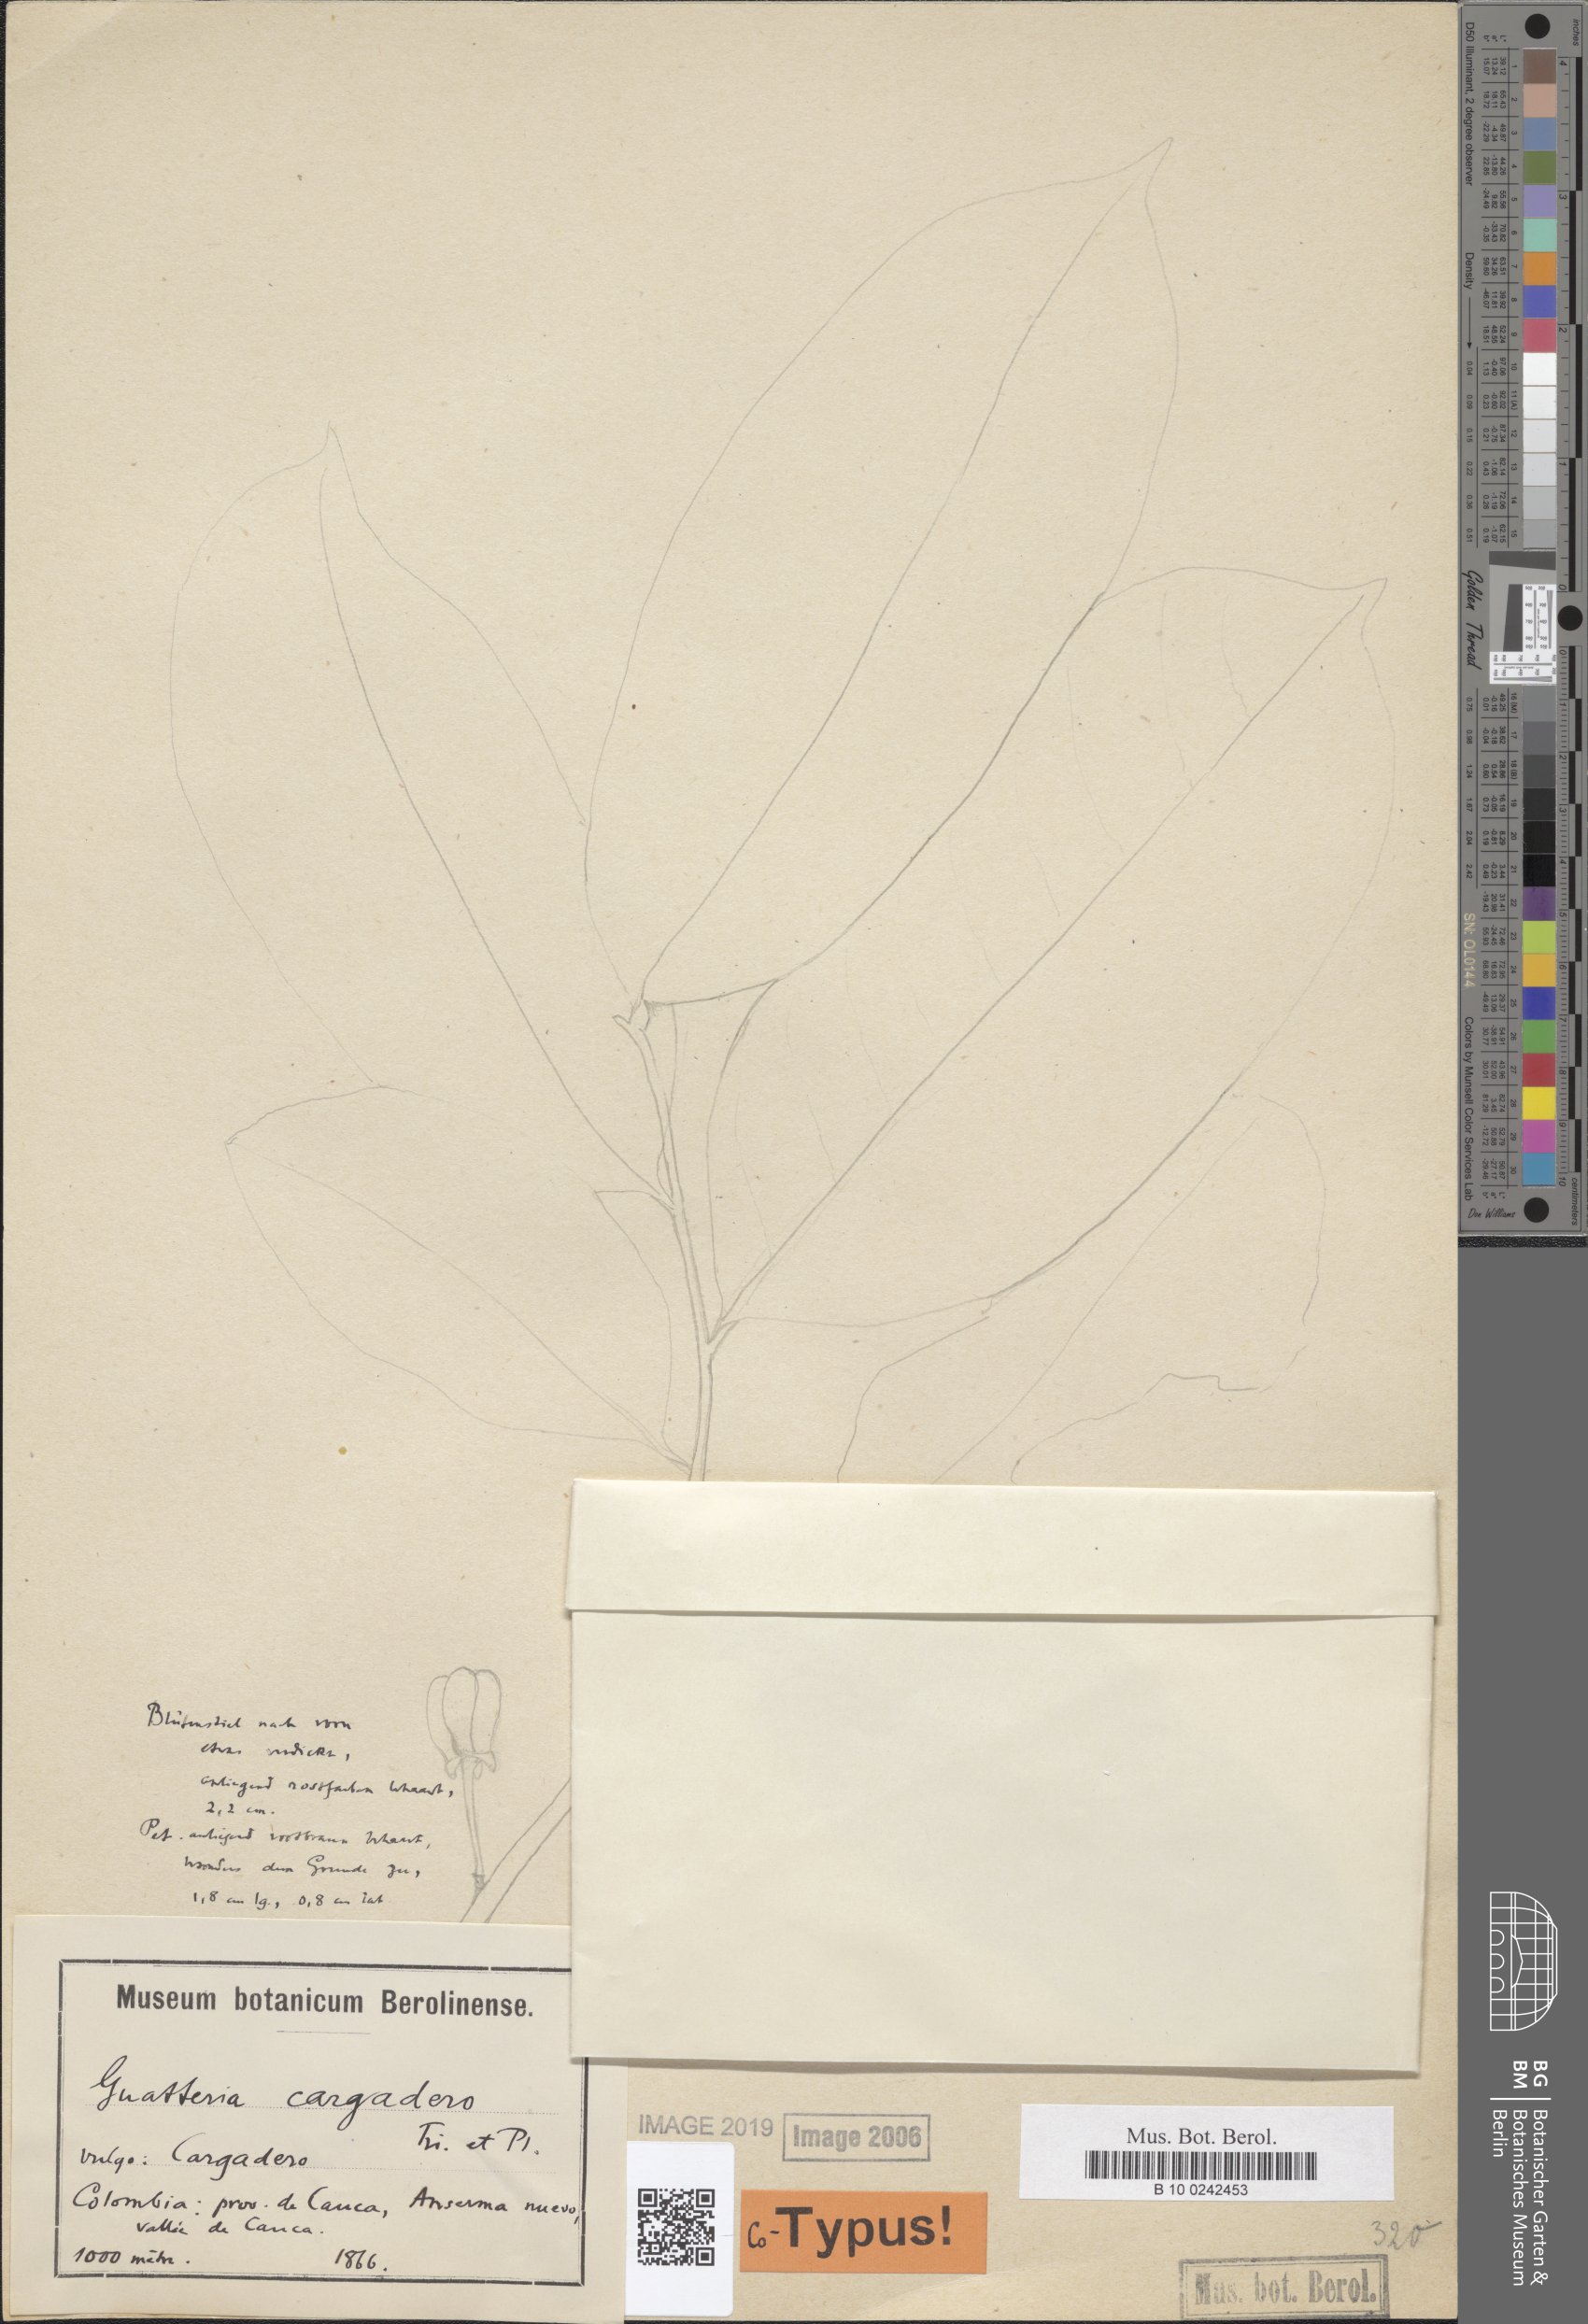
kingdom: Plantae
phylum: Tracheophyta
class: Magnoliopsida
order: Magnoliales
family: Annonaceae
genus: Guatteria
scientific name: Guatteria cargadero
